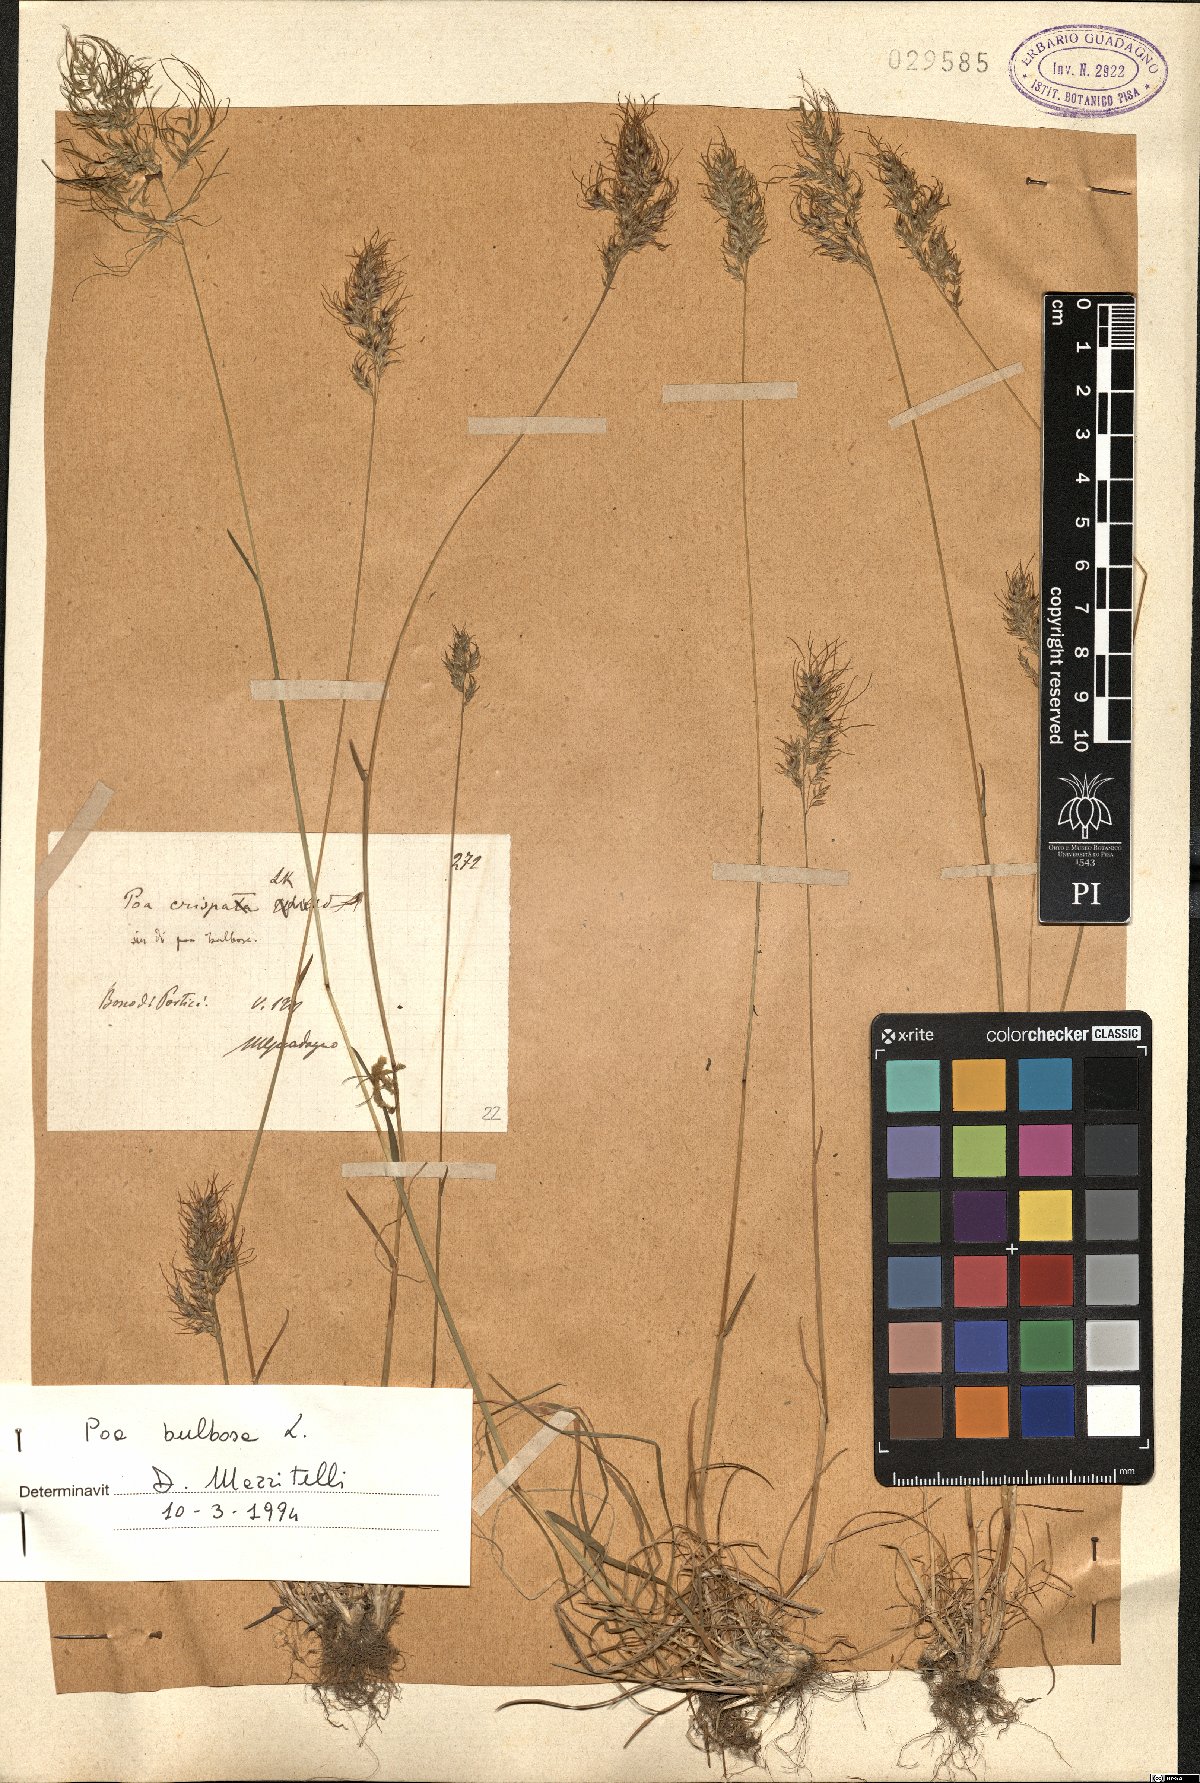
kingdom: Plantae
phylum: Tracheophyta
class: Liliopsida
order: Poales
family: Poaceae
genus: Poa
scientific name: Poa bulbosa
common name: Bulbous bluegrass
